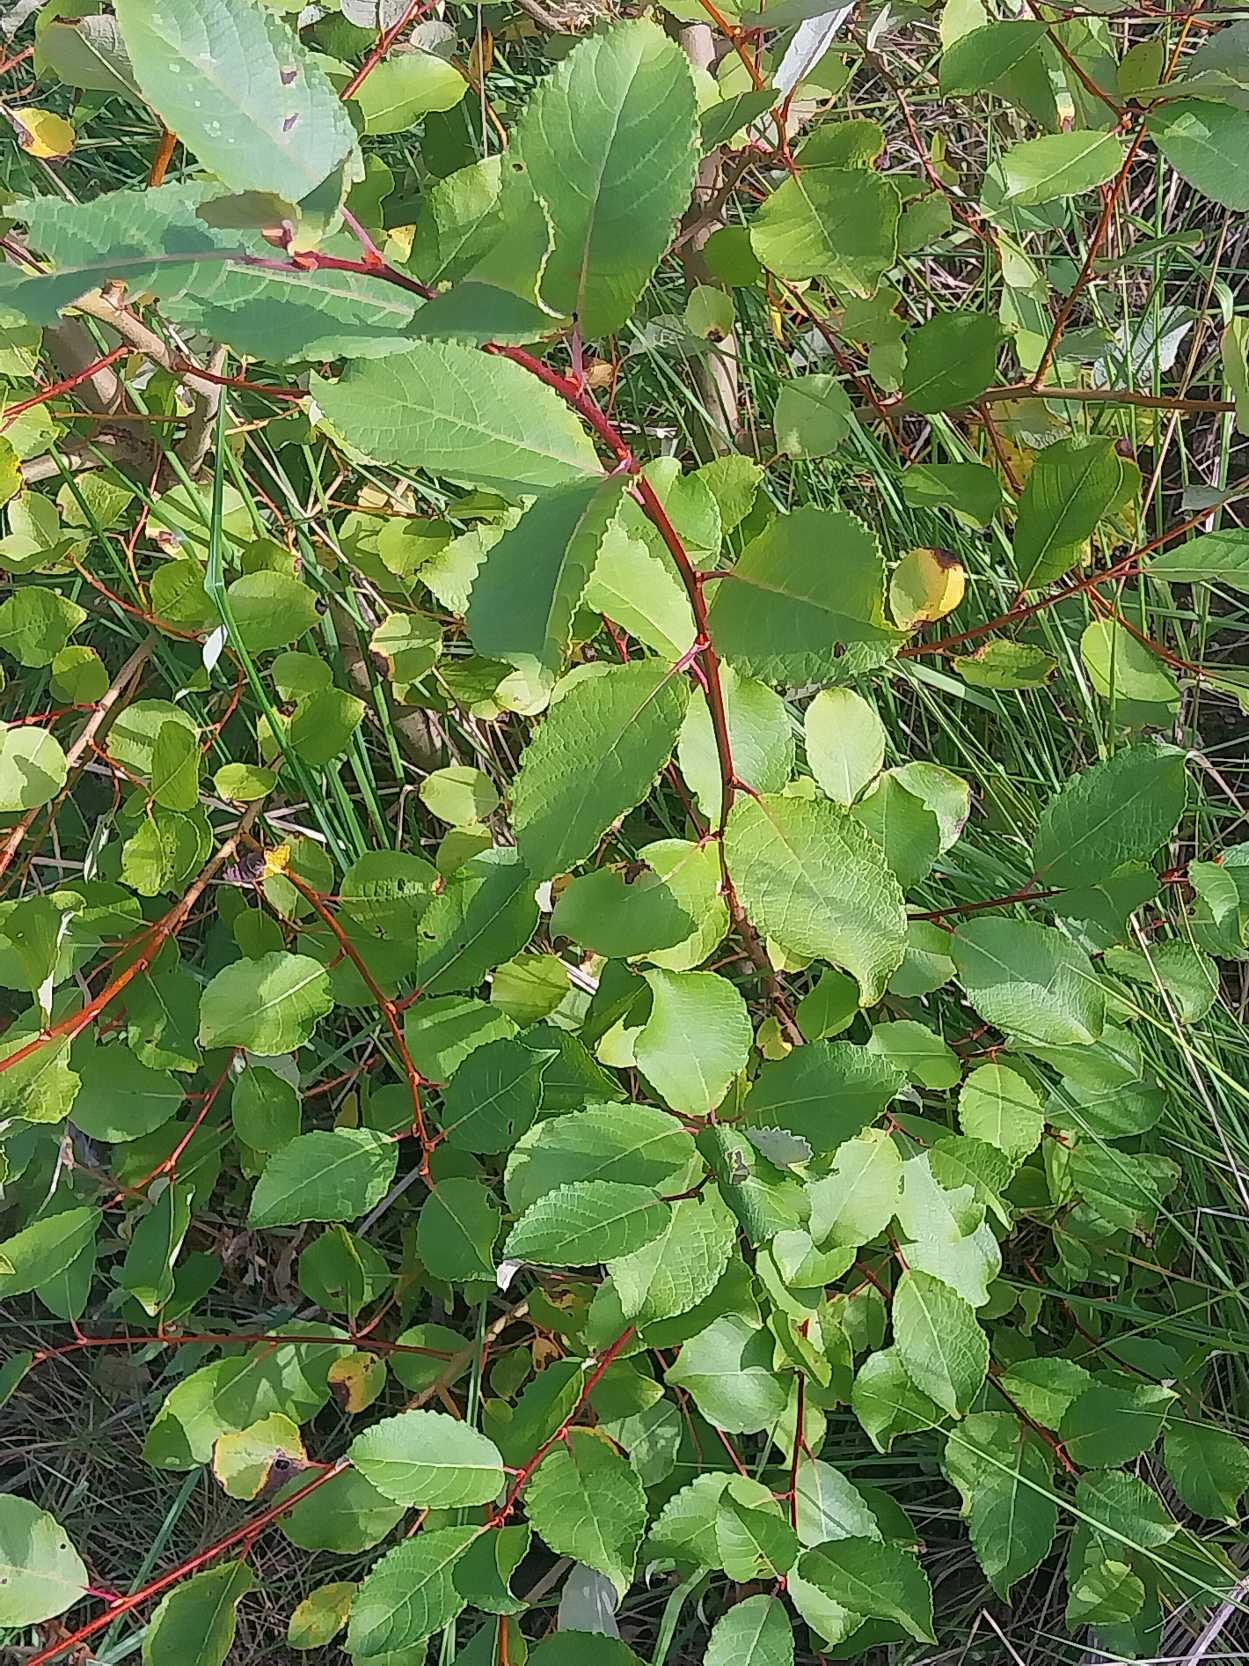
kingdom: Plantae
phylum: Tracheophyta
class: Magnoliopsida
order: Malpighiales
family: Salicaceae
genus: Salix
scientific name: Salix caprea
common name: Selje-pil
